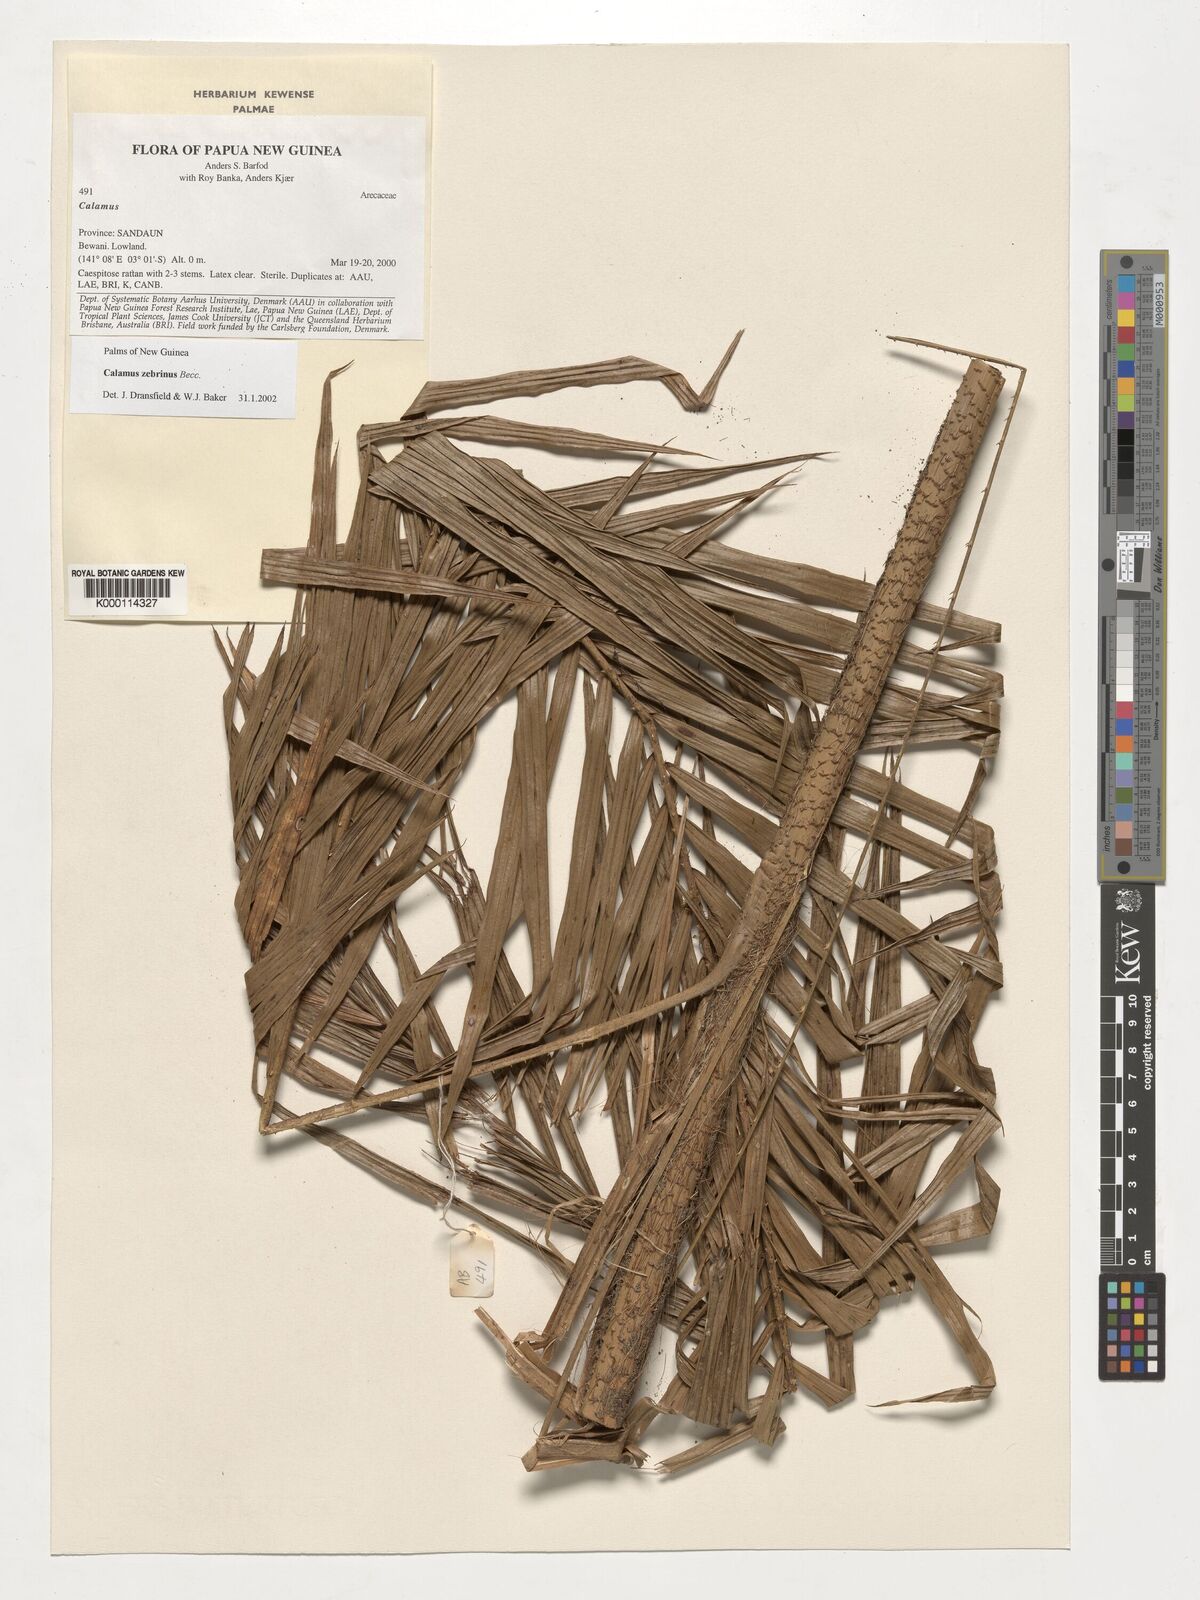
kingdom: Plantae
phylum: Tracheophyta
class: Liliopsida
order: Arecales
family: Arecaceae
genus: Calamus
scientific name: Calamus zebrinus
